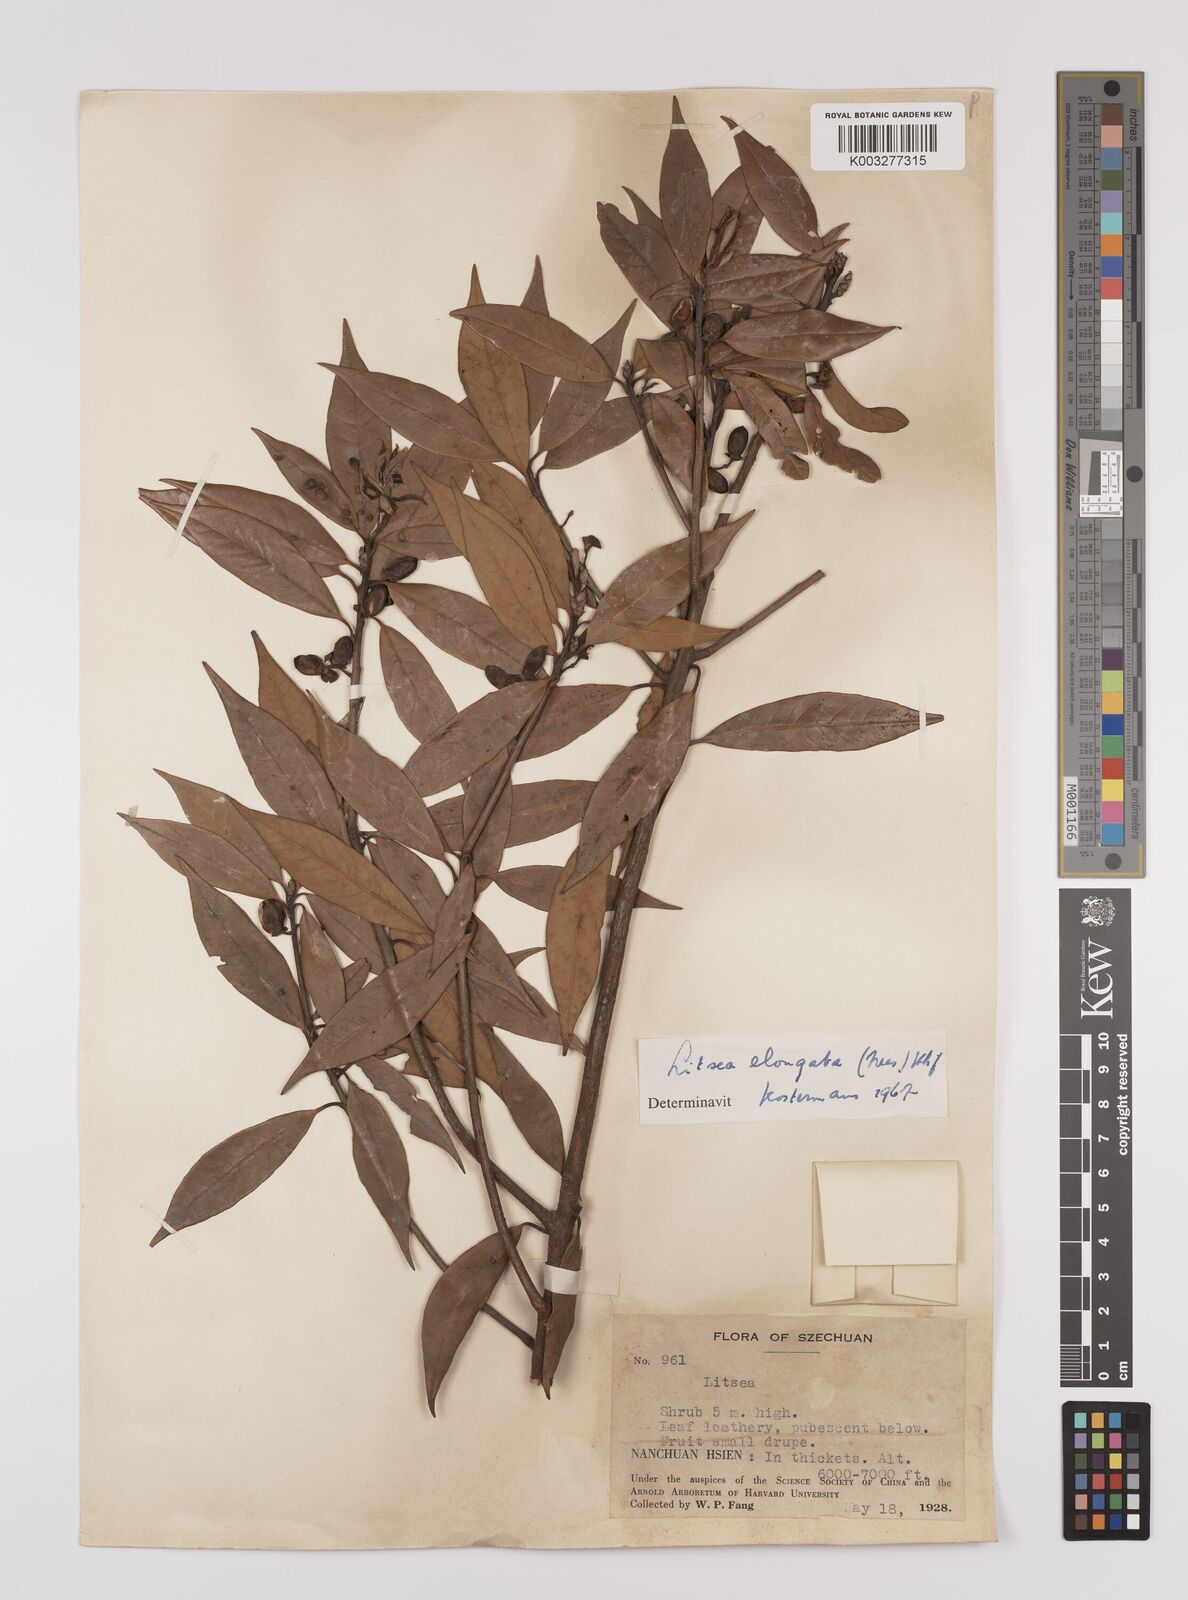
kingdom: Plantae
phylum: Tracheophyta
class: Magnoliopsida
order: Laurales
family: Lauraceae
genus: Litsea
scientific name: Litsea elongata
